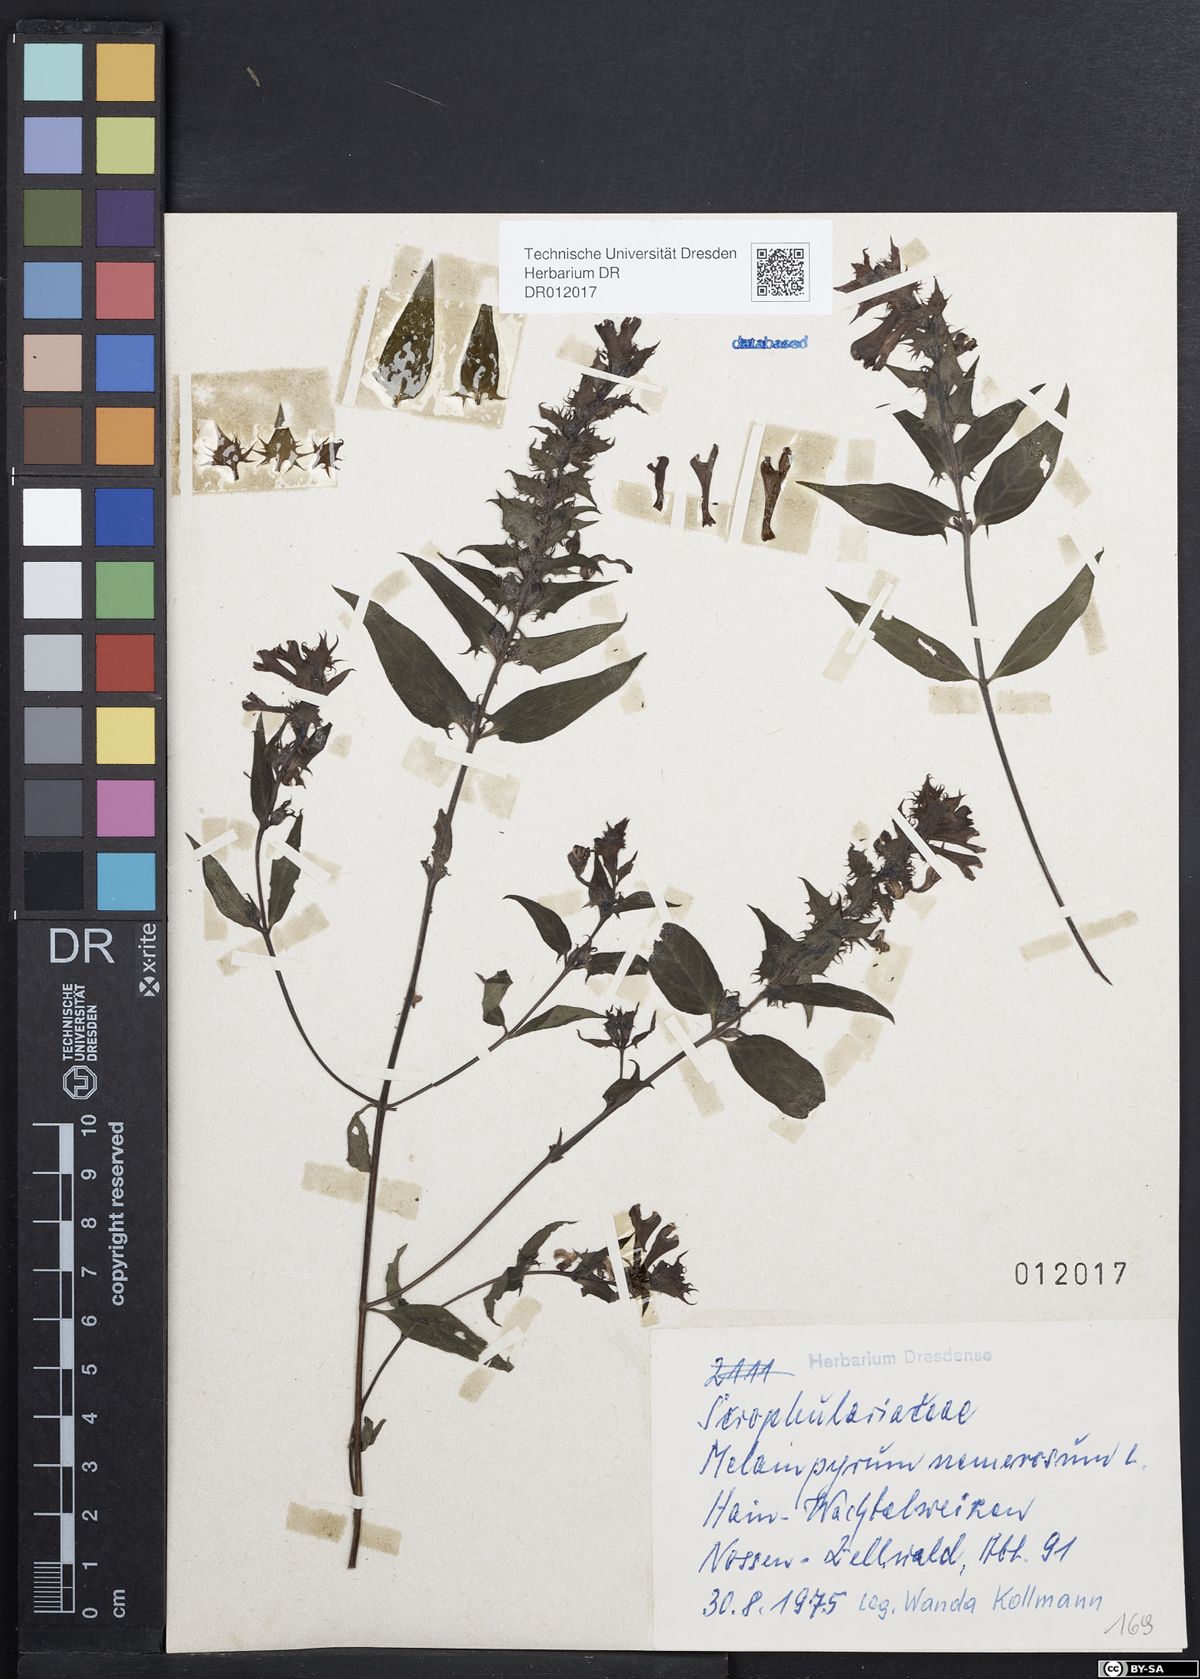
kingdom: Plantae
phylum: Tracheophyta
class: Magnoliopsida
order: Lamiales
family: Orobanchaceae
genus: Melampyrum
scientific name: Melampyrum nemorosum
